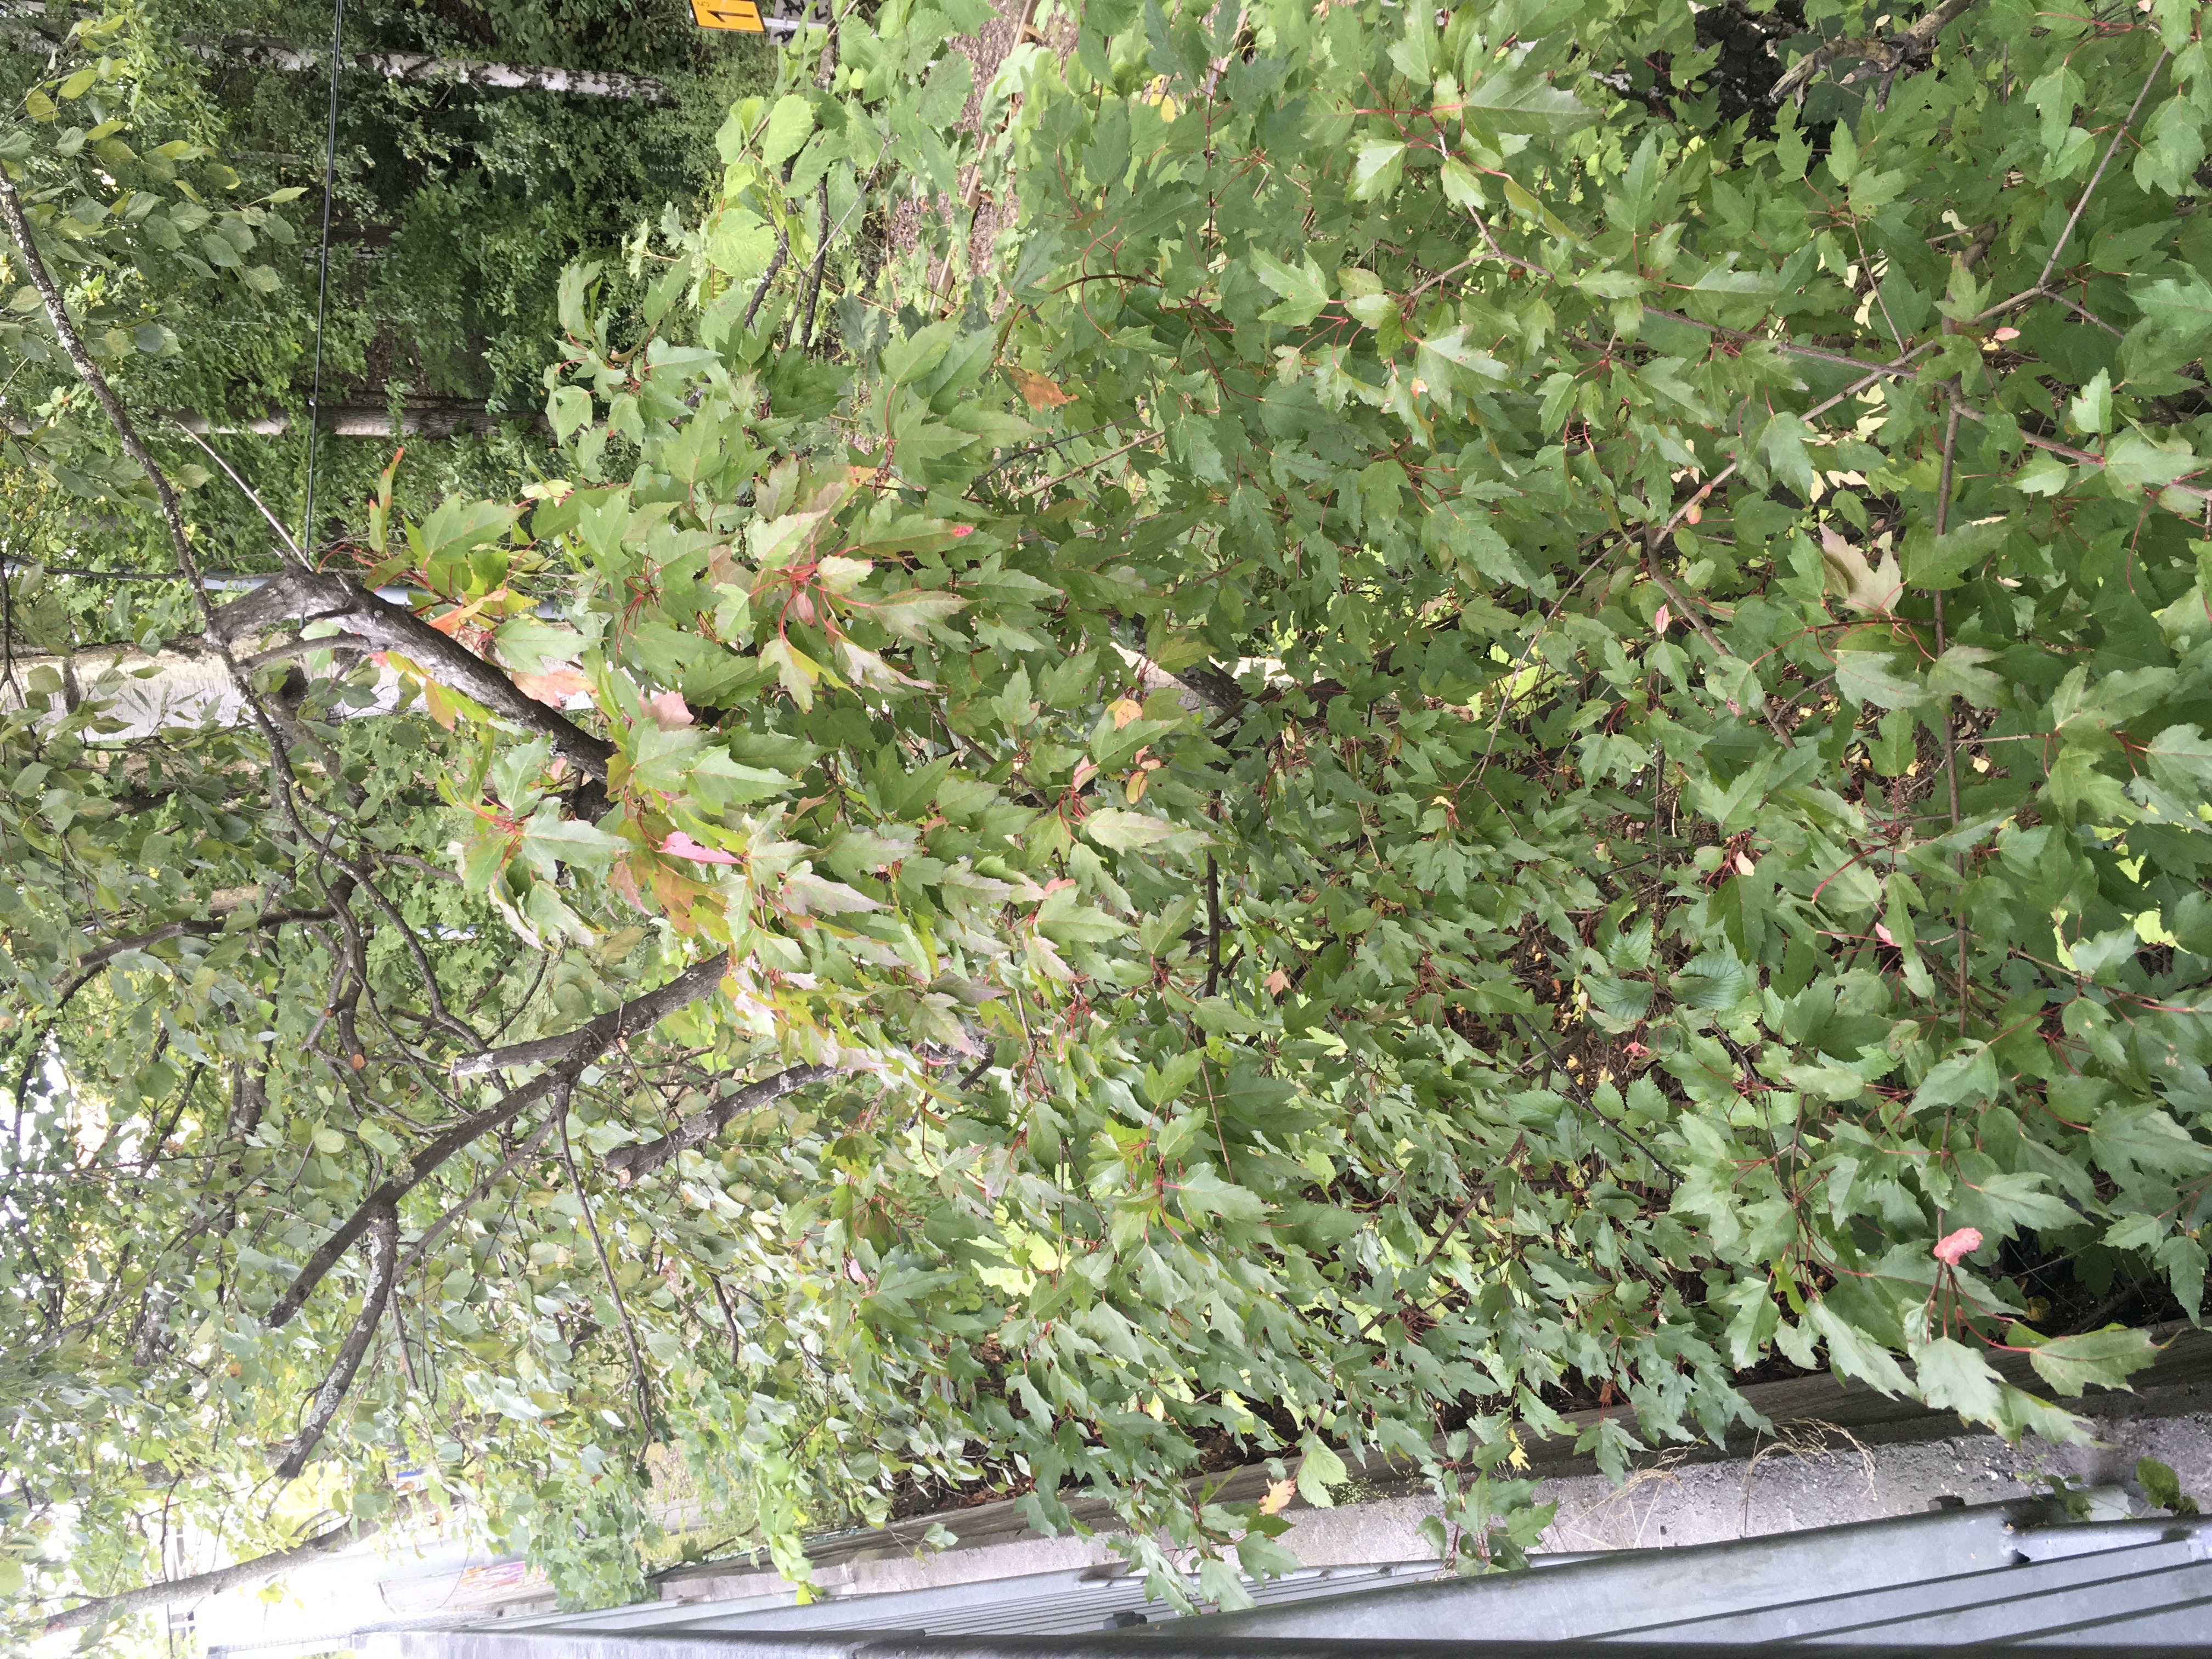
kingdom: Plantae
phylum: Tracheophyta
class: Magnoliopsida
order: Sapindales
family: Sapindaceae
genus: Acer
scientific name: Acer tataricum
